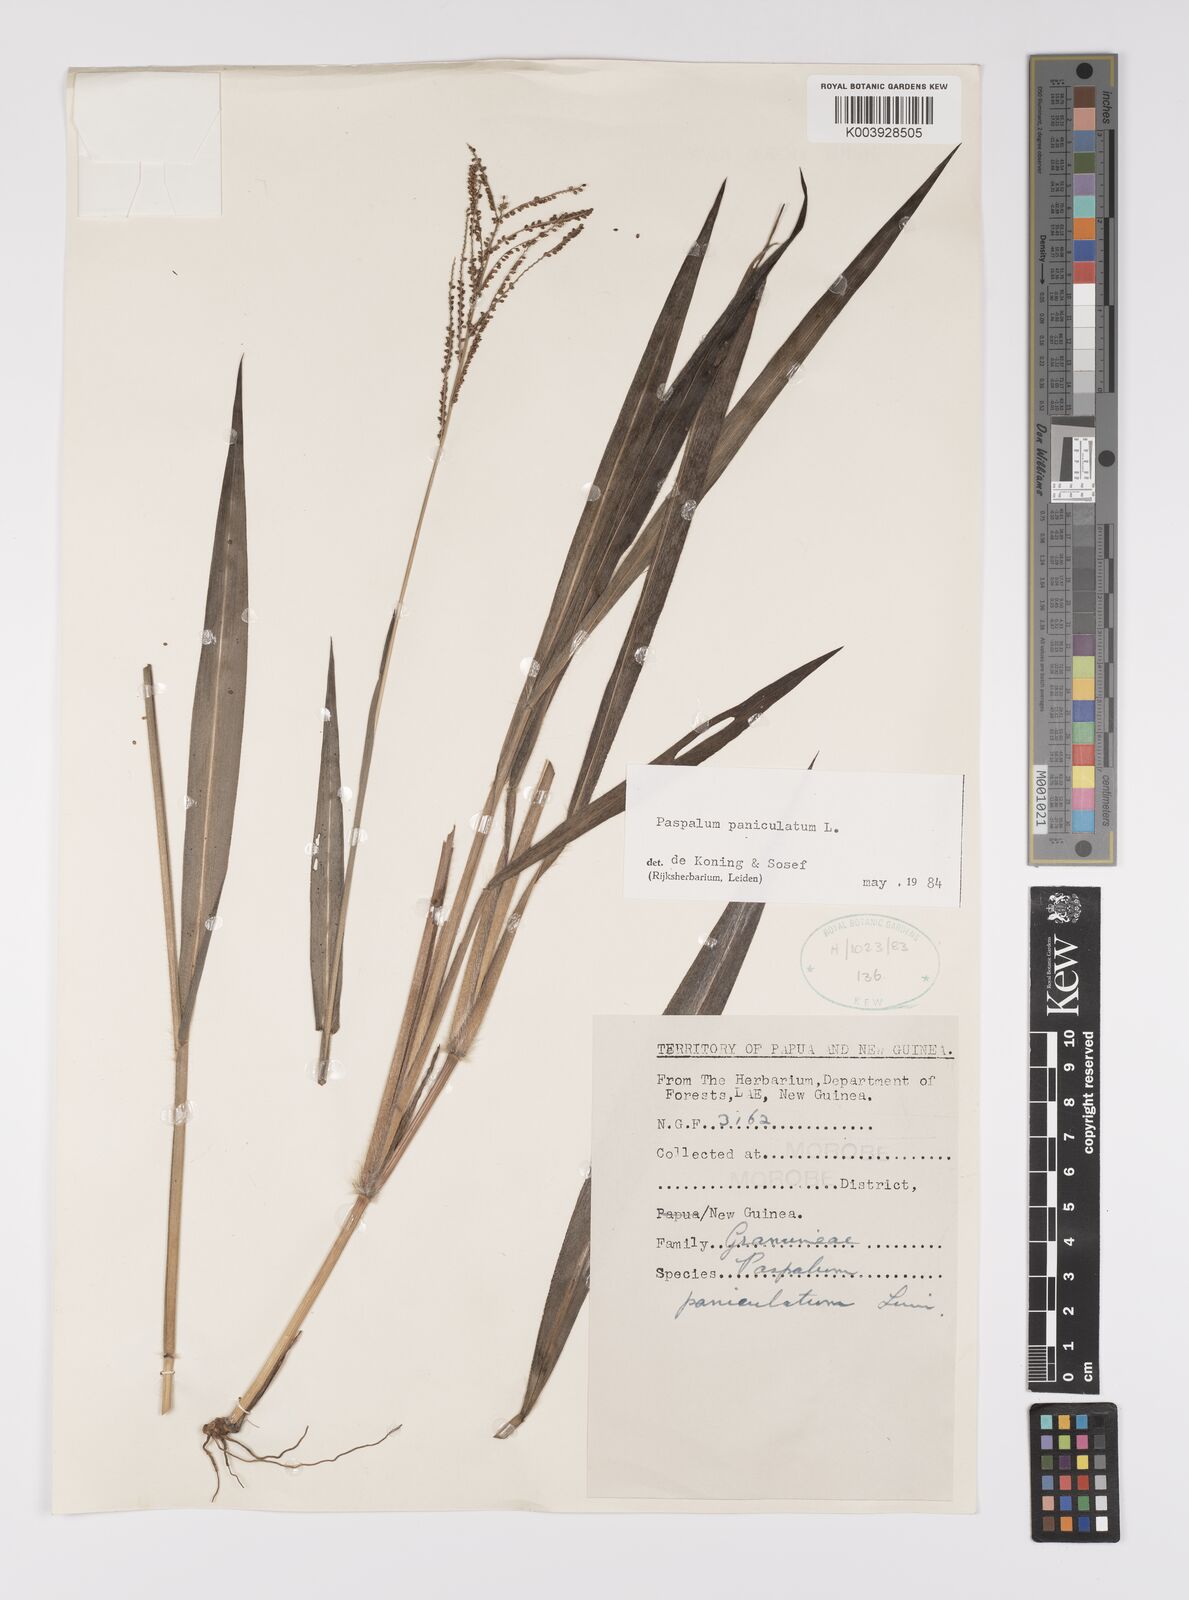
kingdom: Plantae
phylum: Tracheophyta
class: Liliopsida
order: Poales
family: Poaceae
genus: Paspalum
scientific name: Paspalum paniculatum
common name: Arrocillo
